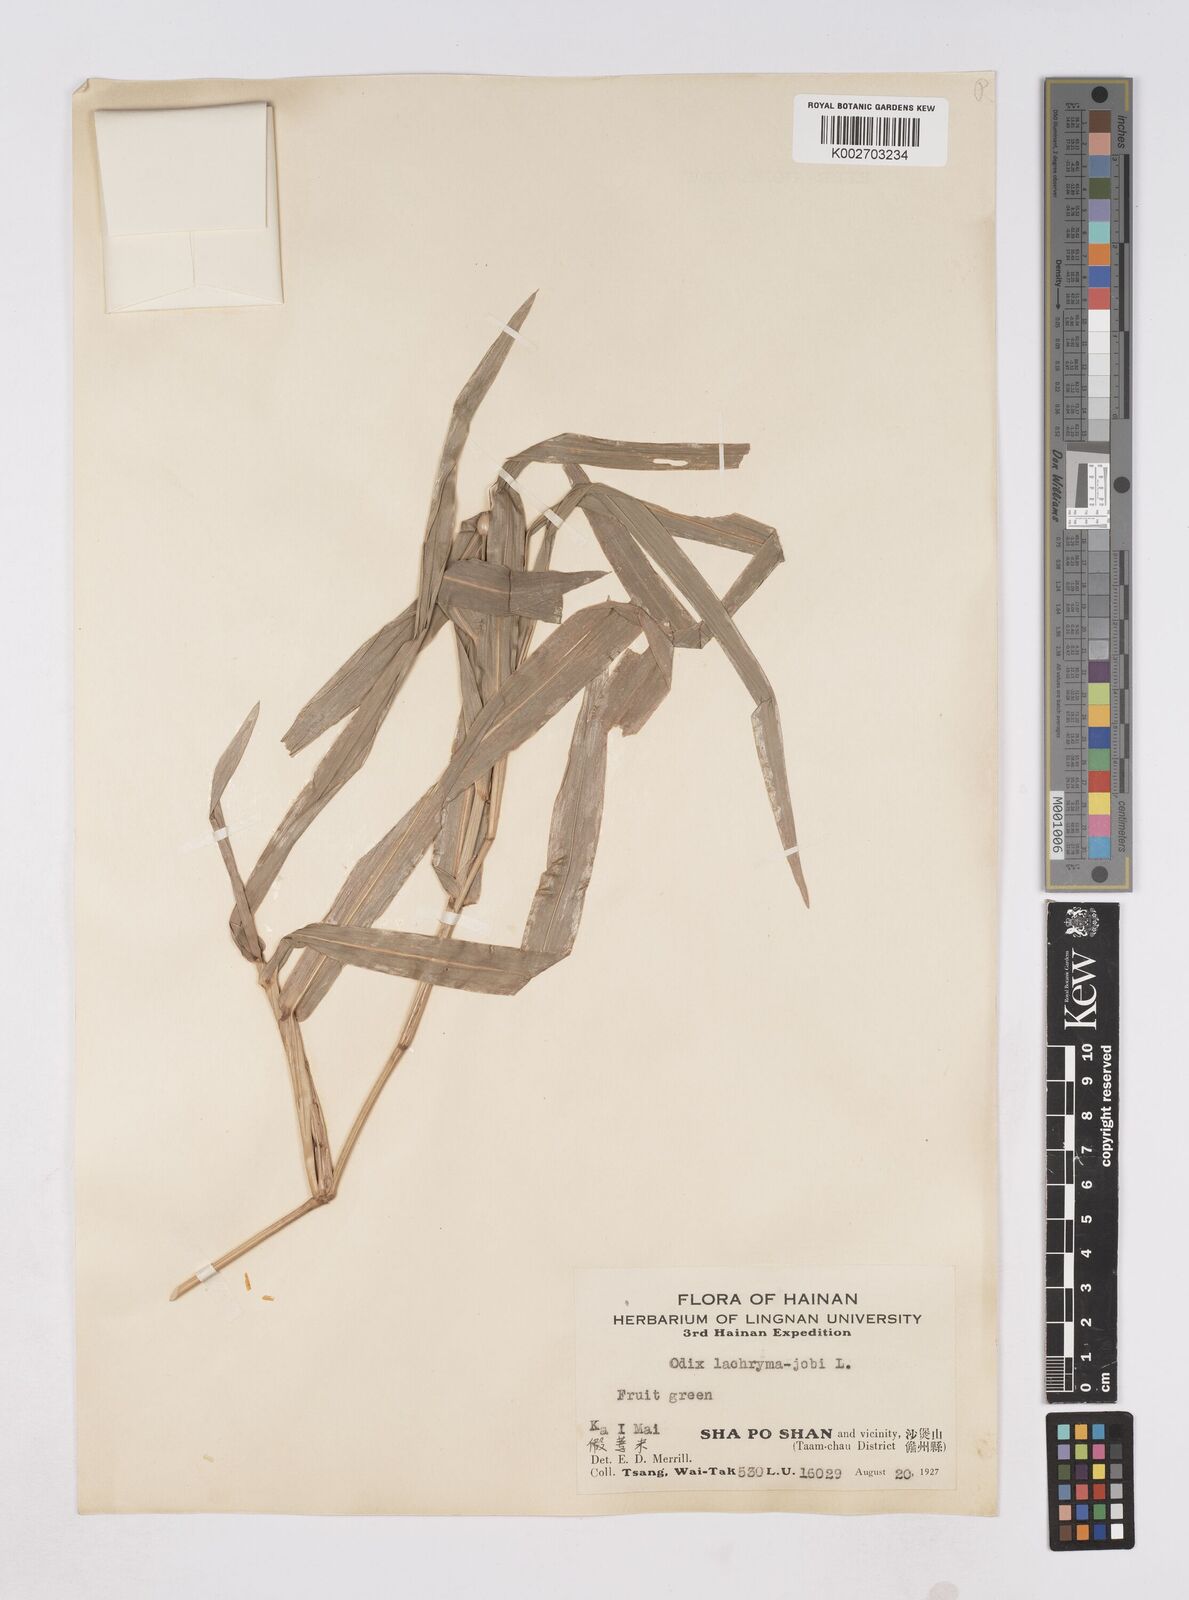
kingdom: Plantae
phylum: Tracheophyta
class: Liliopsida
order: Poales
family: Poaceae
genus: Coix
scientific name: Coix lacryma-jobi
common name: Job's tears
